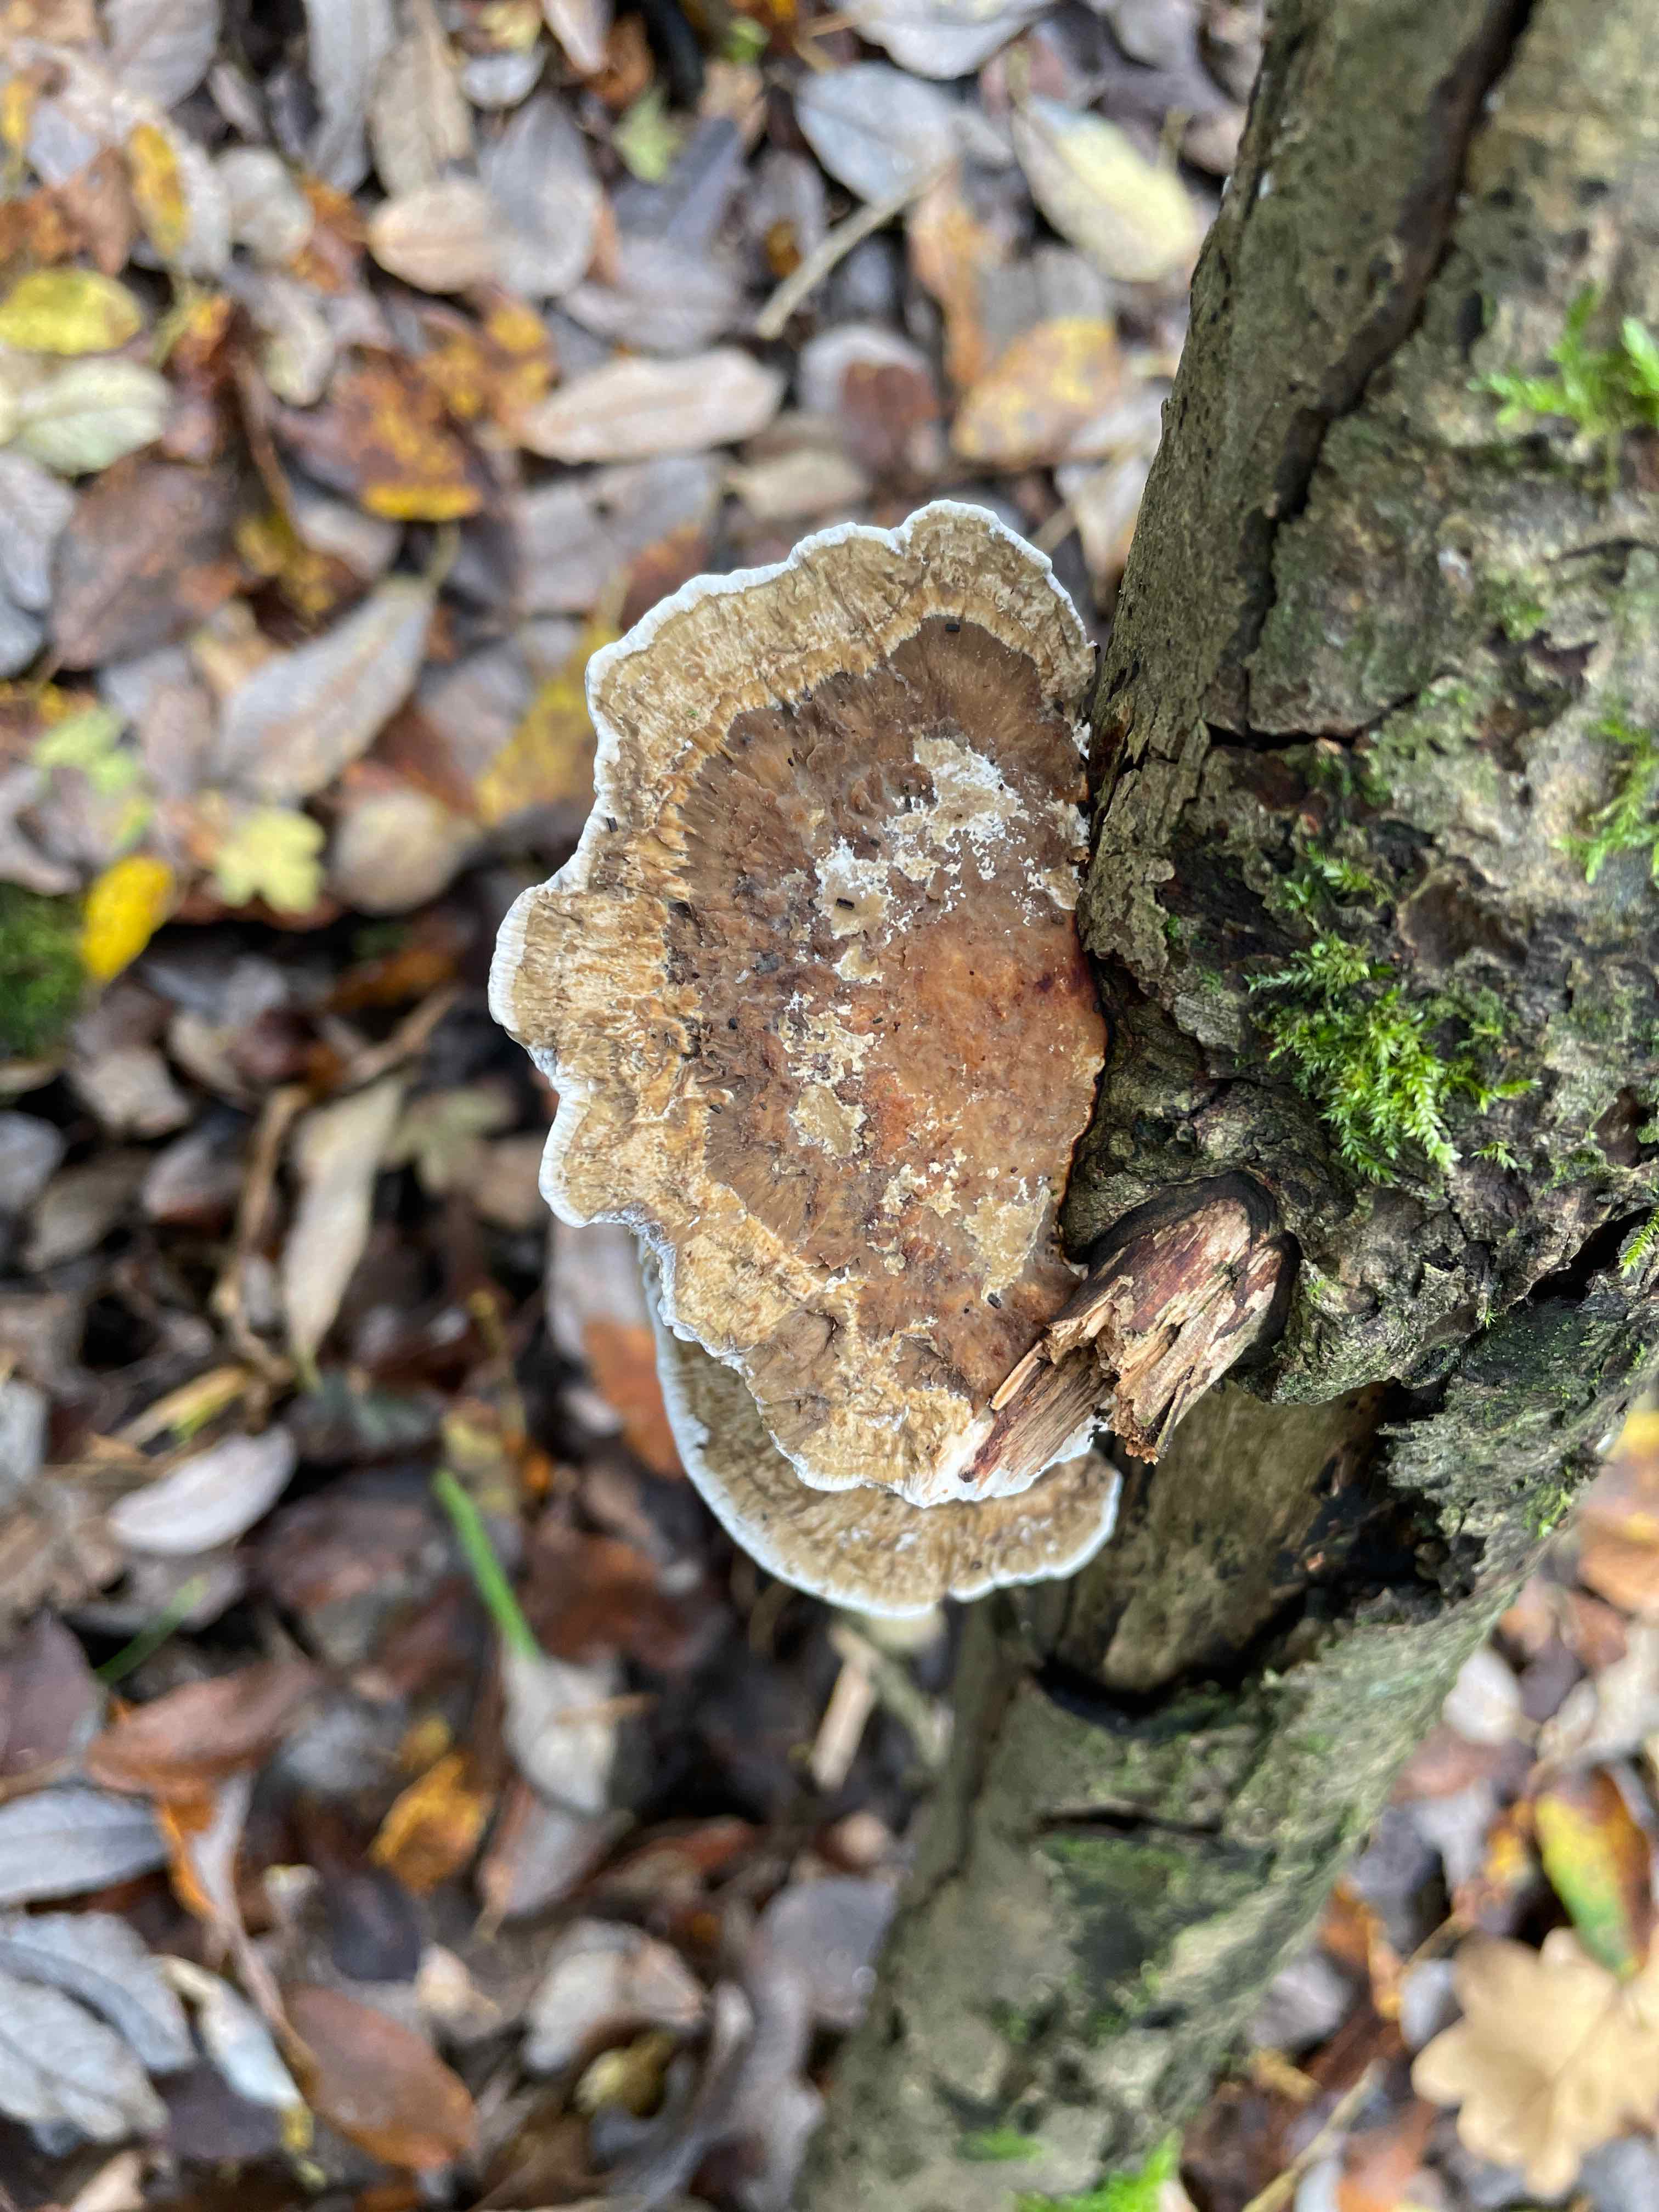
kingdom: Fungi
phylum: Basidiomycota
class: Agaricomycetes
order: Polyporales
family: Polyporaceae
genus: Daedaleopsis
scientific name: Daedaleopsis confragosa
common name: rødmende læderporesvamp
